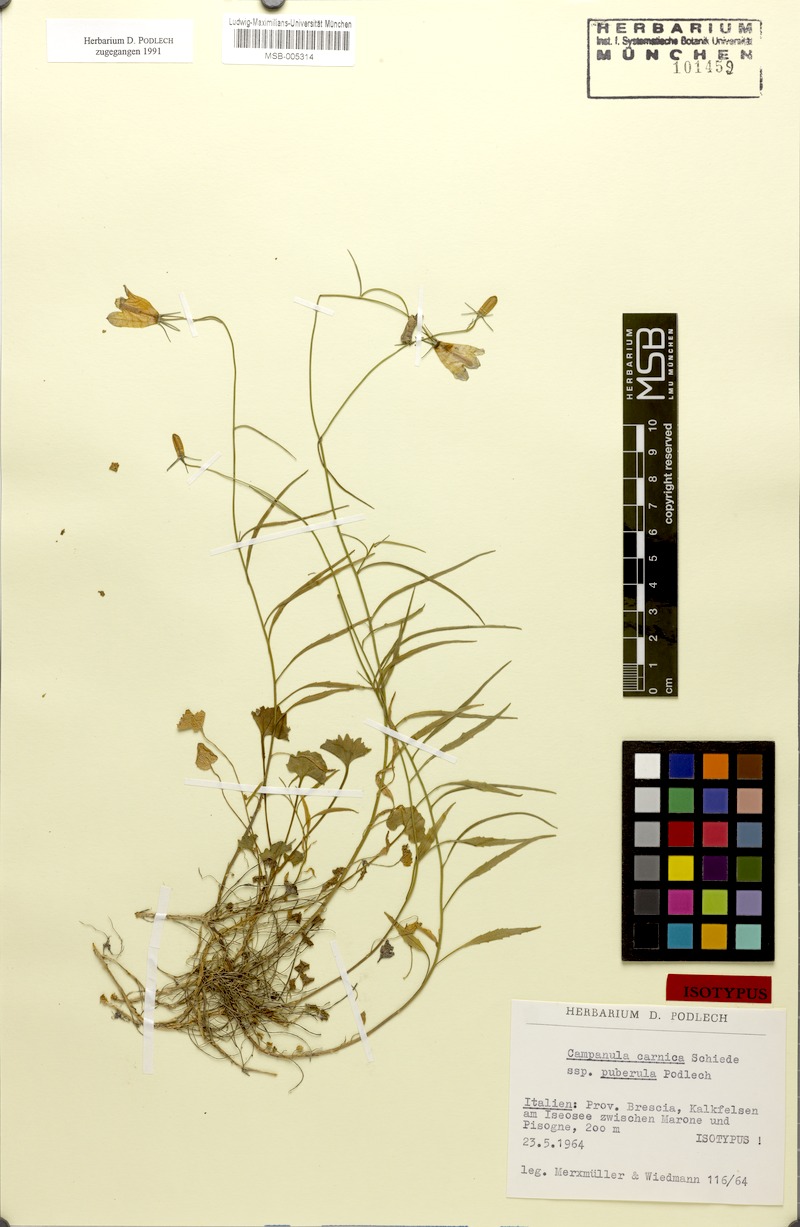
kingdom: Plantae
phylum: Tracheophyta
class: Magnoliopsida
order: Asterales
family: Campanulaceae
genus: Campanula
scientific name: Campanula carnica
